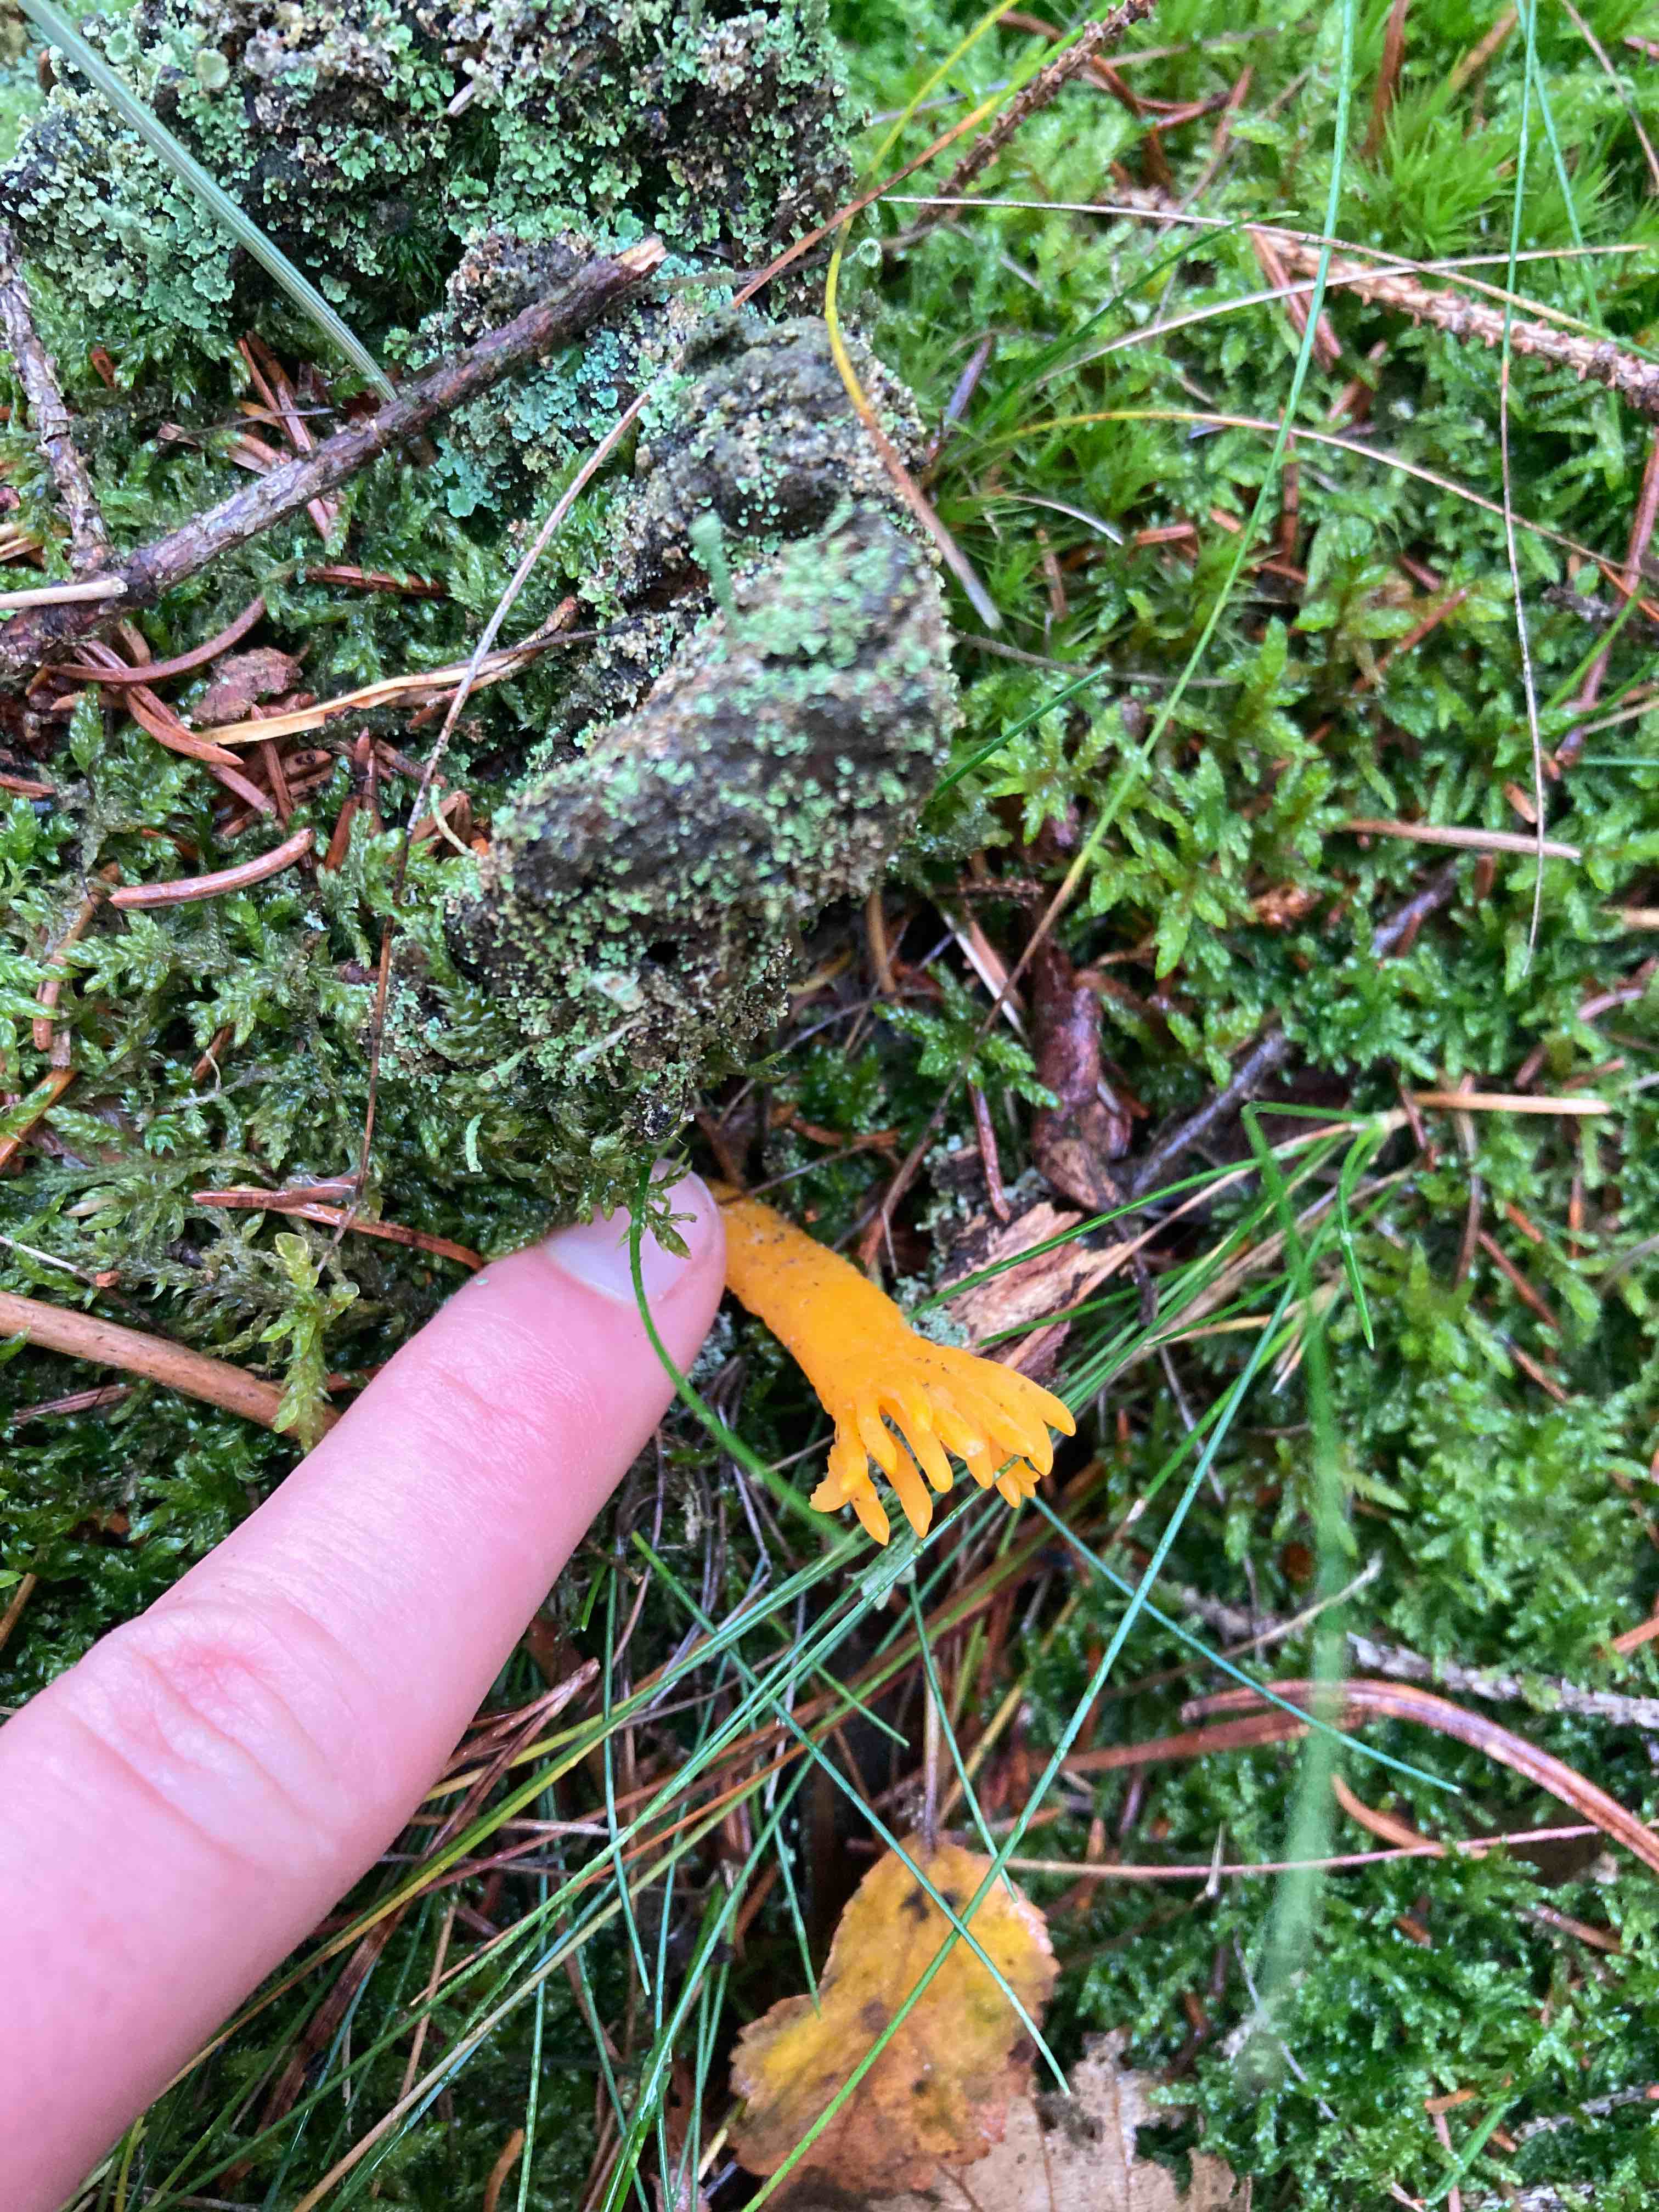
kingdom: Fungi
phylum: Basidiomycota
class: Dacrymycetes
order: Dacrymycetales
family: Dacrymycetaceae
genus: Calocera
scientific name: Calocera viscosa
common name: almindelig guldgaffel
